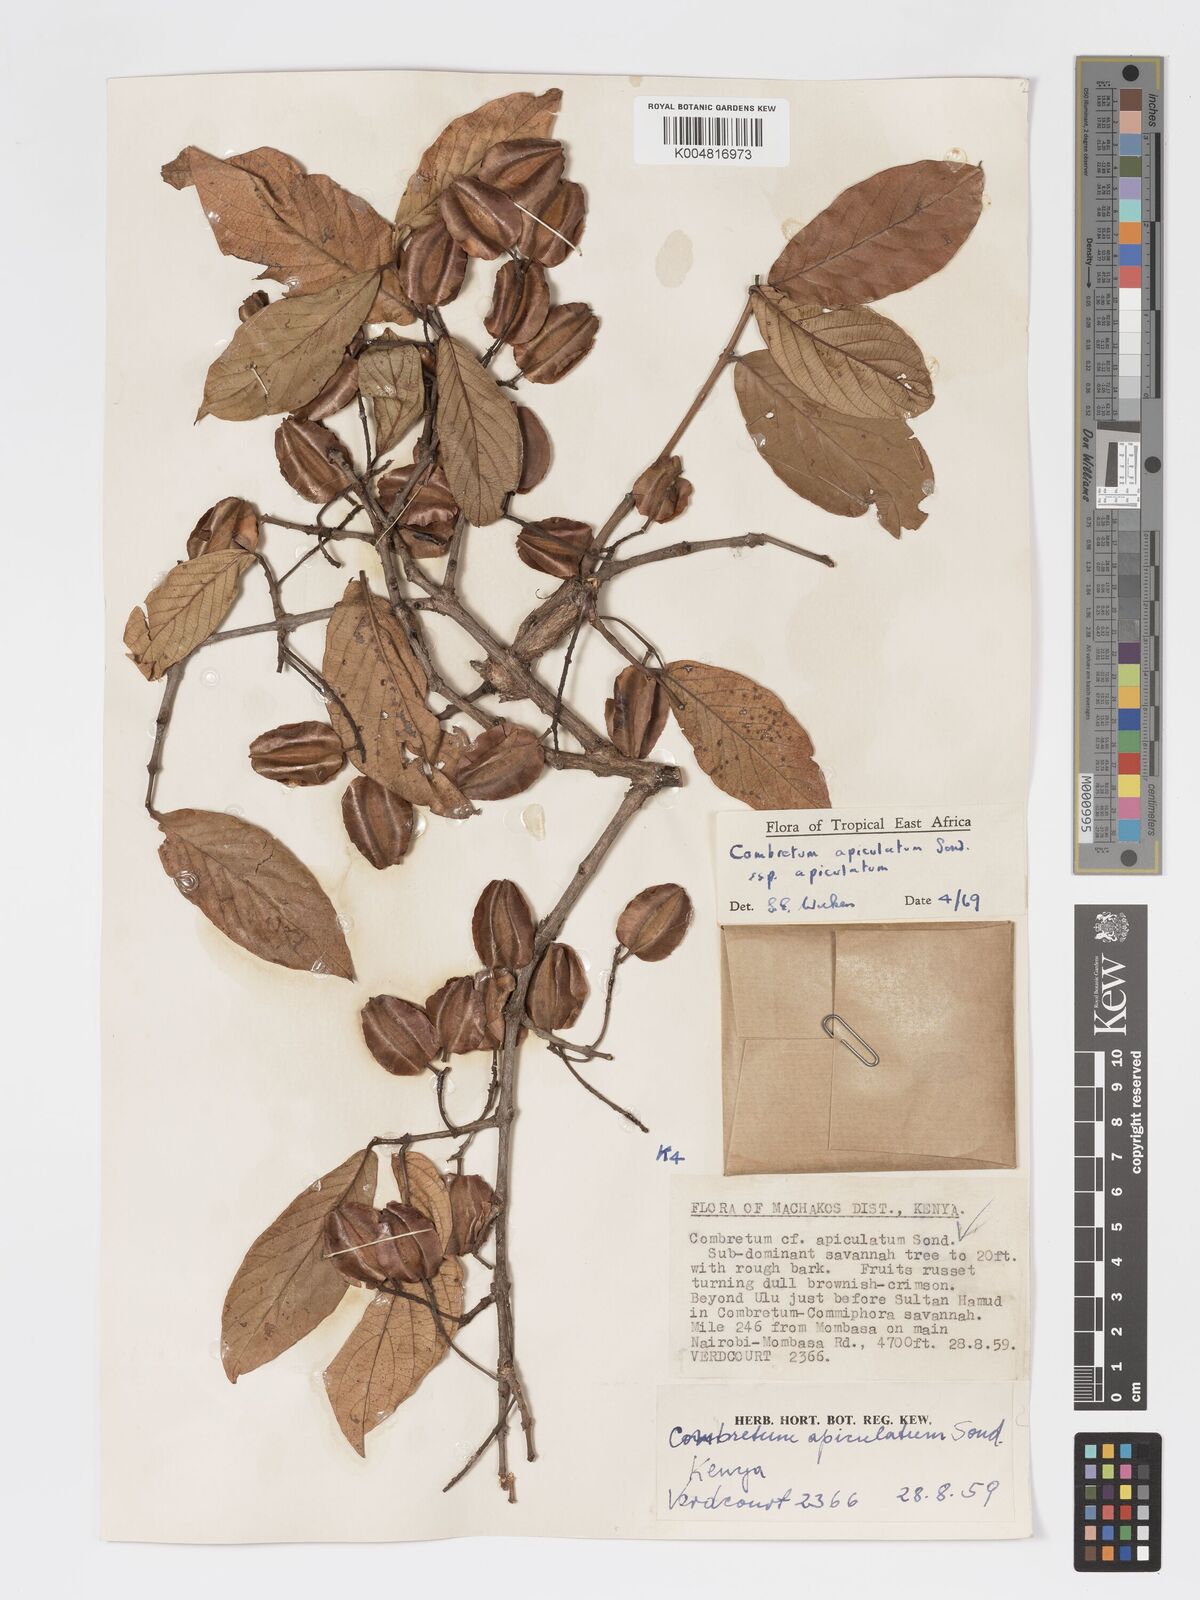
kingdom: Plantae
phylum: Tracheophyta
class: Magnoliopsida
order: Myrtales
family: Combretaceae
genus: Combretum
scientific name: Combretum apiculatum
